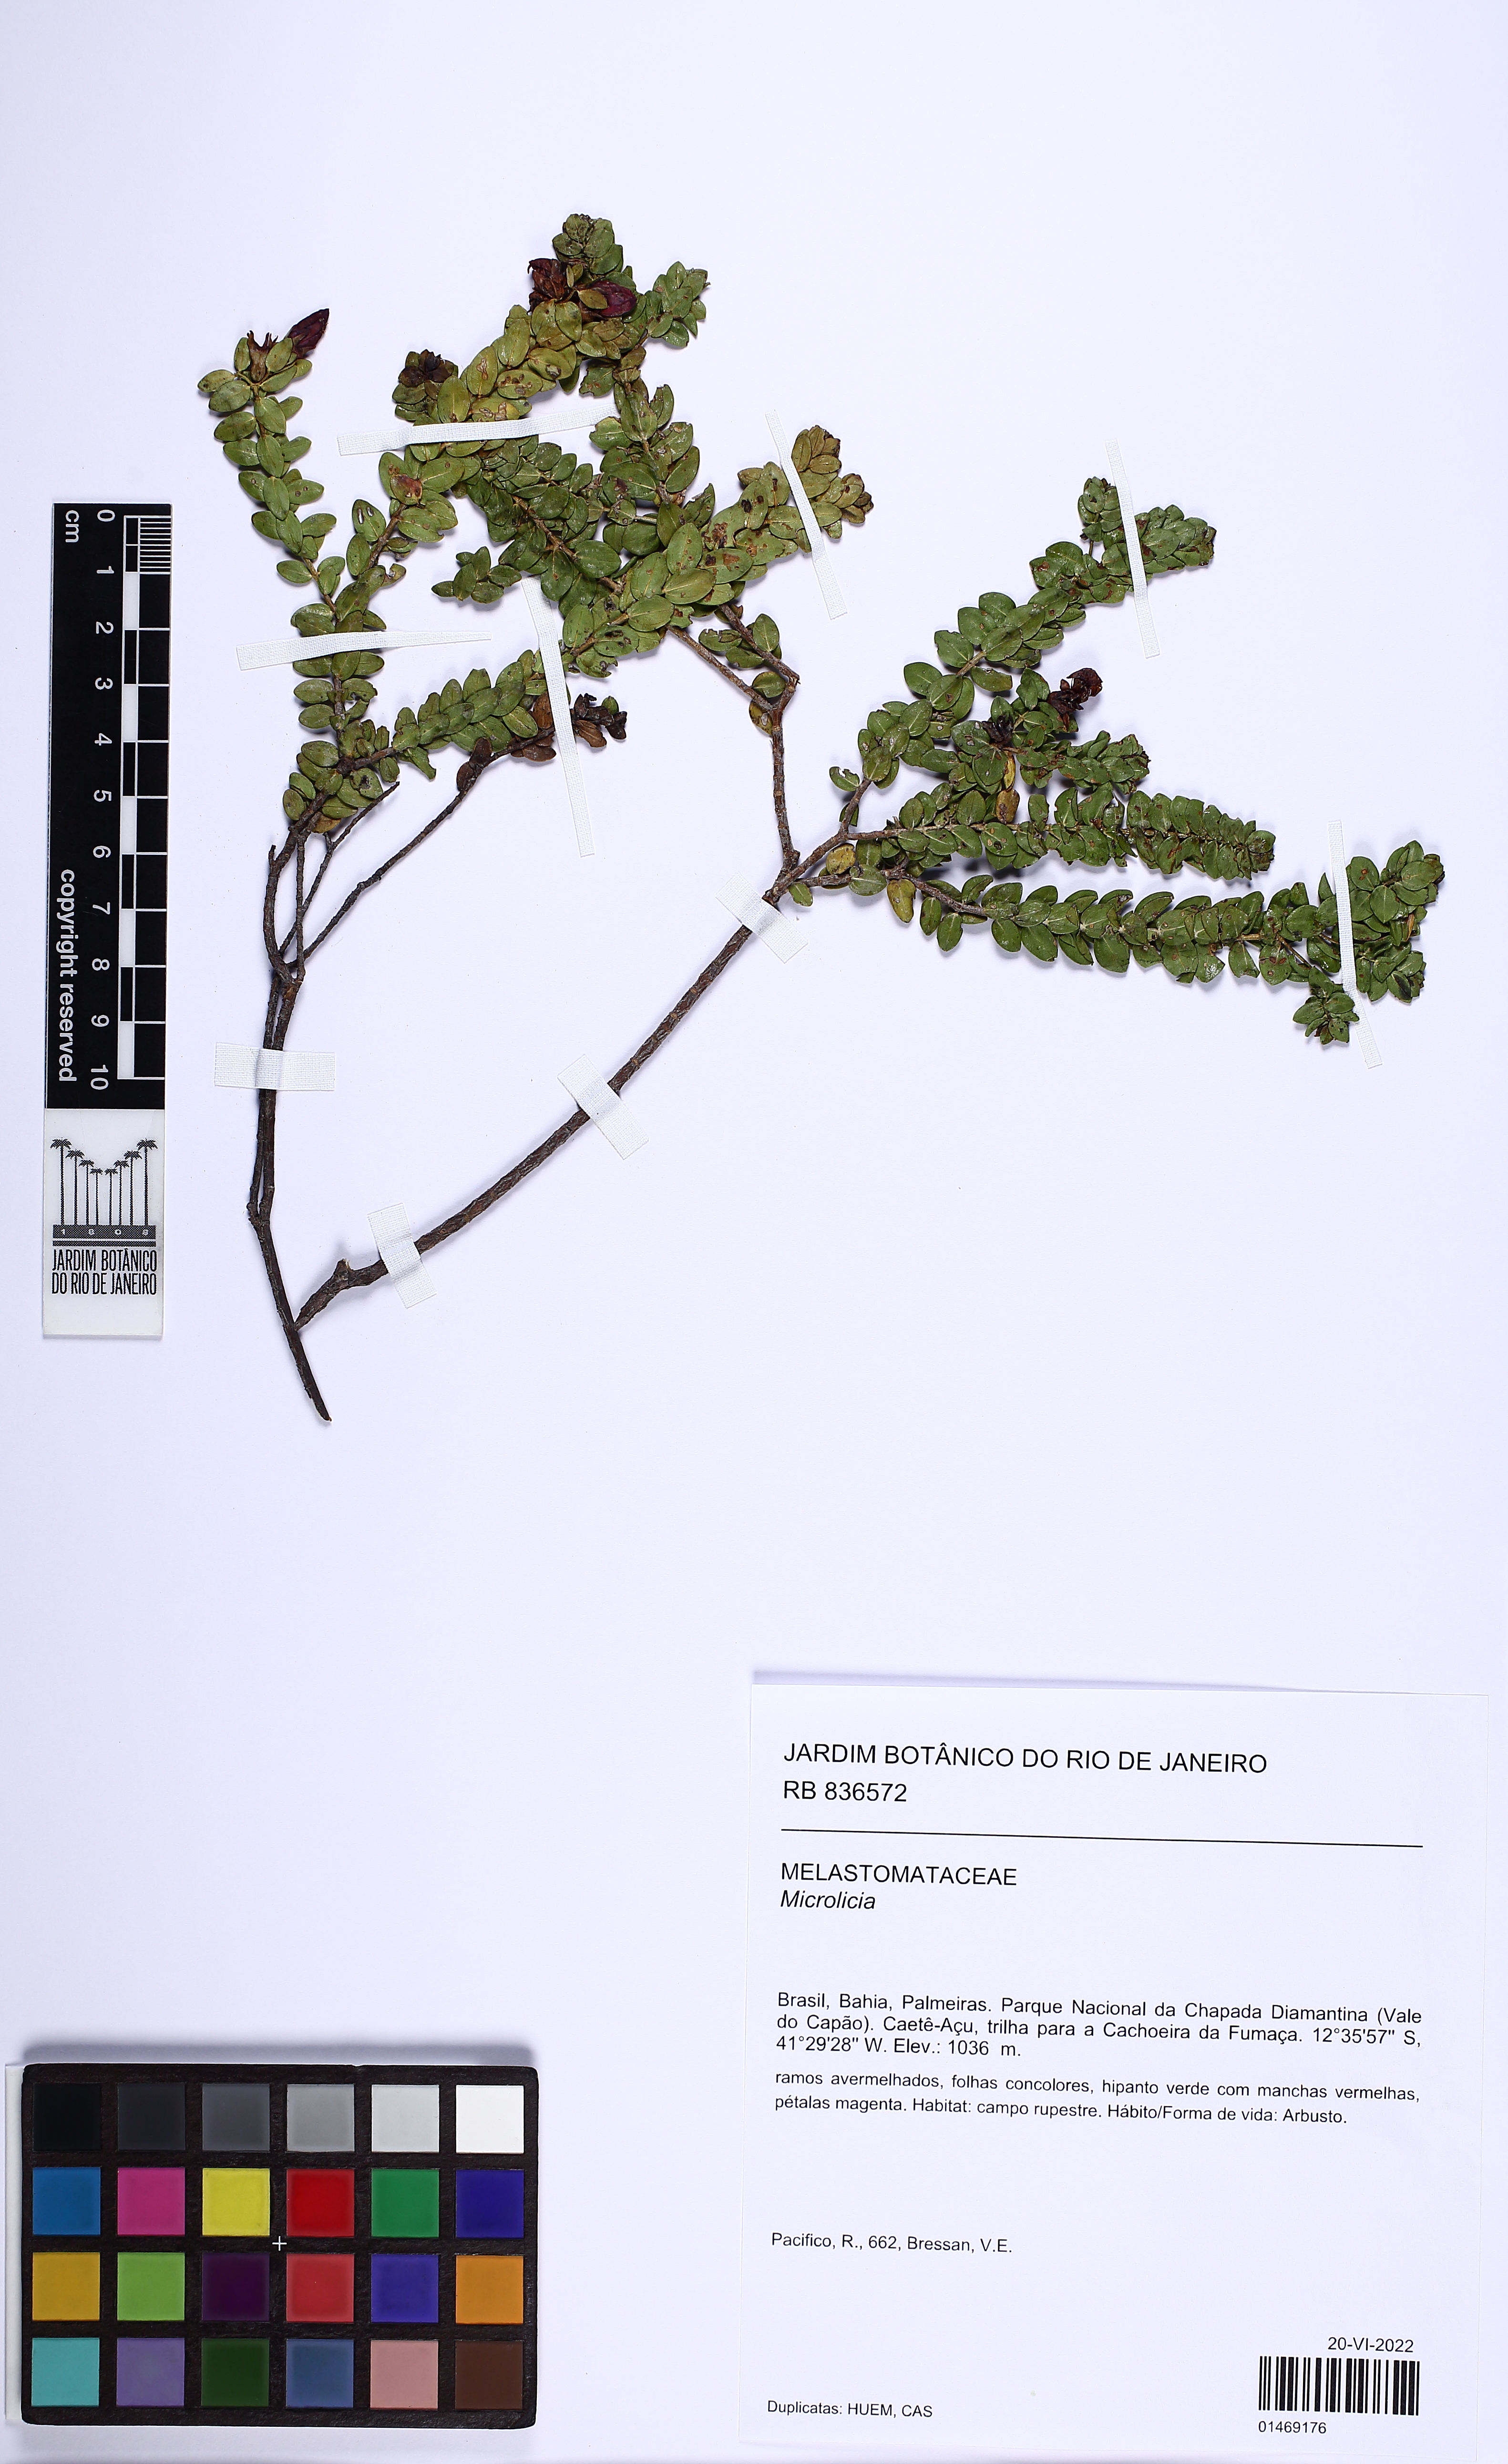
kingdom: Plantae
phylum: Tracheophyta
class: Magnoliopsida
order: Myrtales
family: Melastomataceae
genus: Microlicia
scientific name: Microlicia
